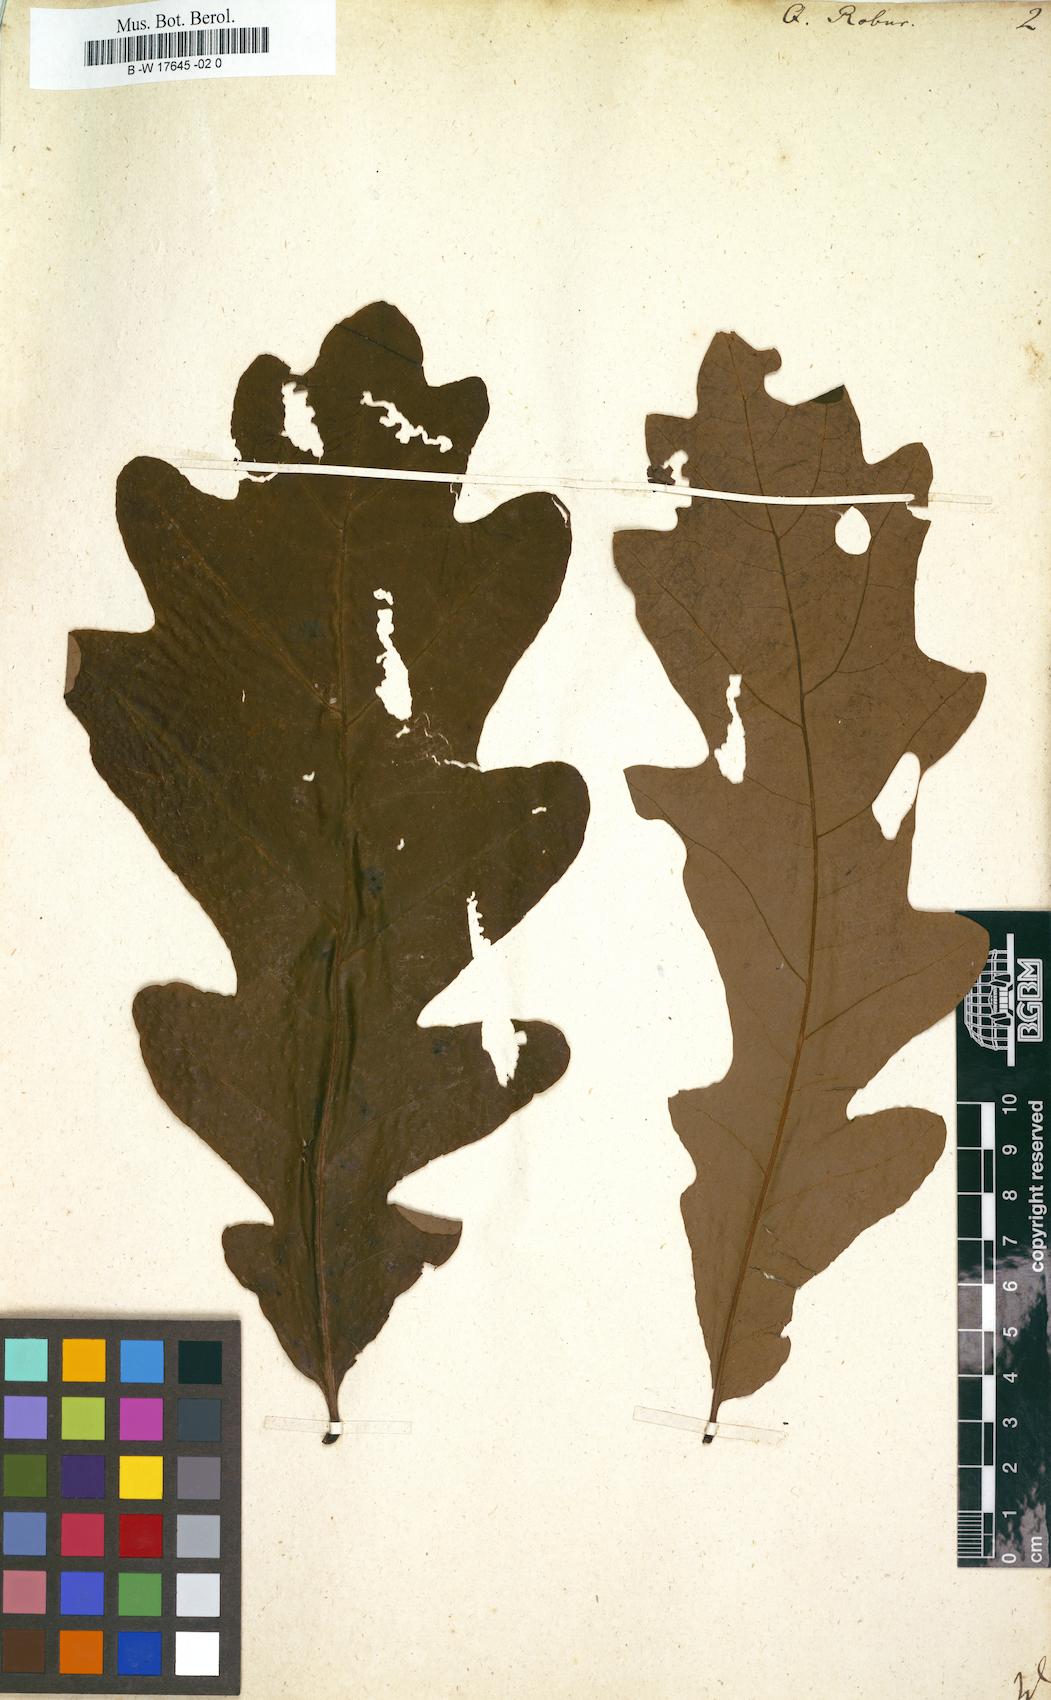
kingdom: Plantae
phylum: Tracheophyta
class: Magnoliopsida
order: Fagales
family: Fagaceae
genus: Quercus
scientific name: Quercus robur
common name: Pedunculate oak
